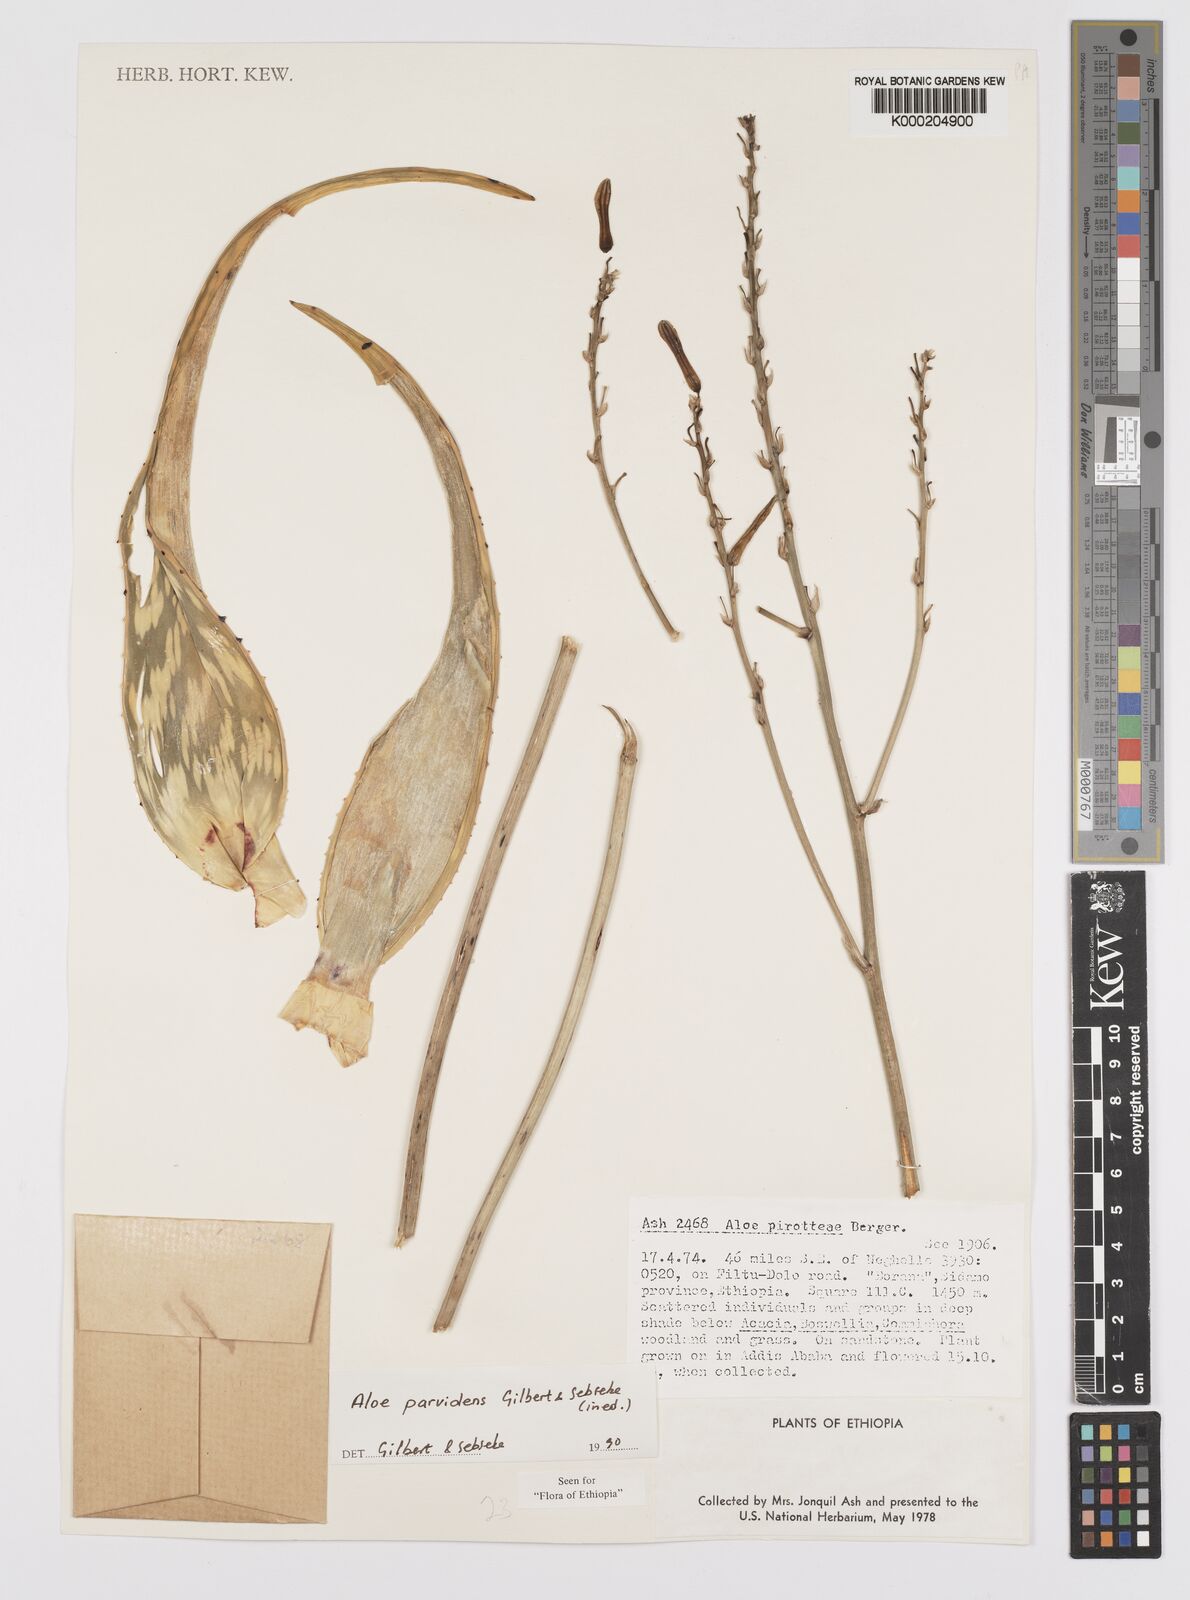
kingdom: Plantae
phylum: Tracheophyta
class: Liliopsida
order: Asparagales
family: Asphodelaceae
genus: Aloe
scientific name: Aloe parvidens
